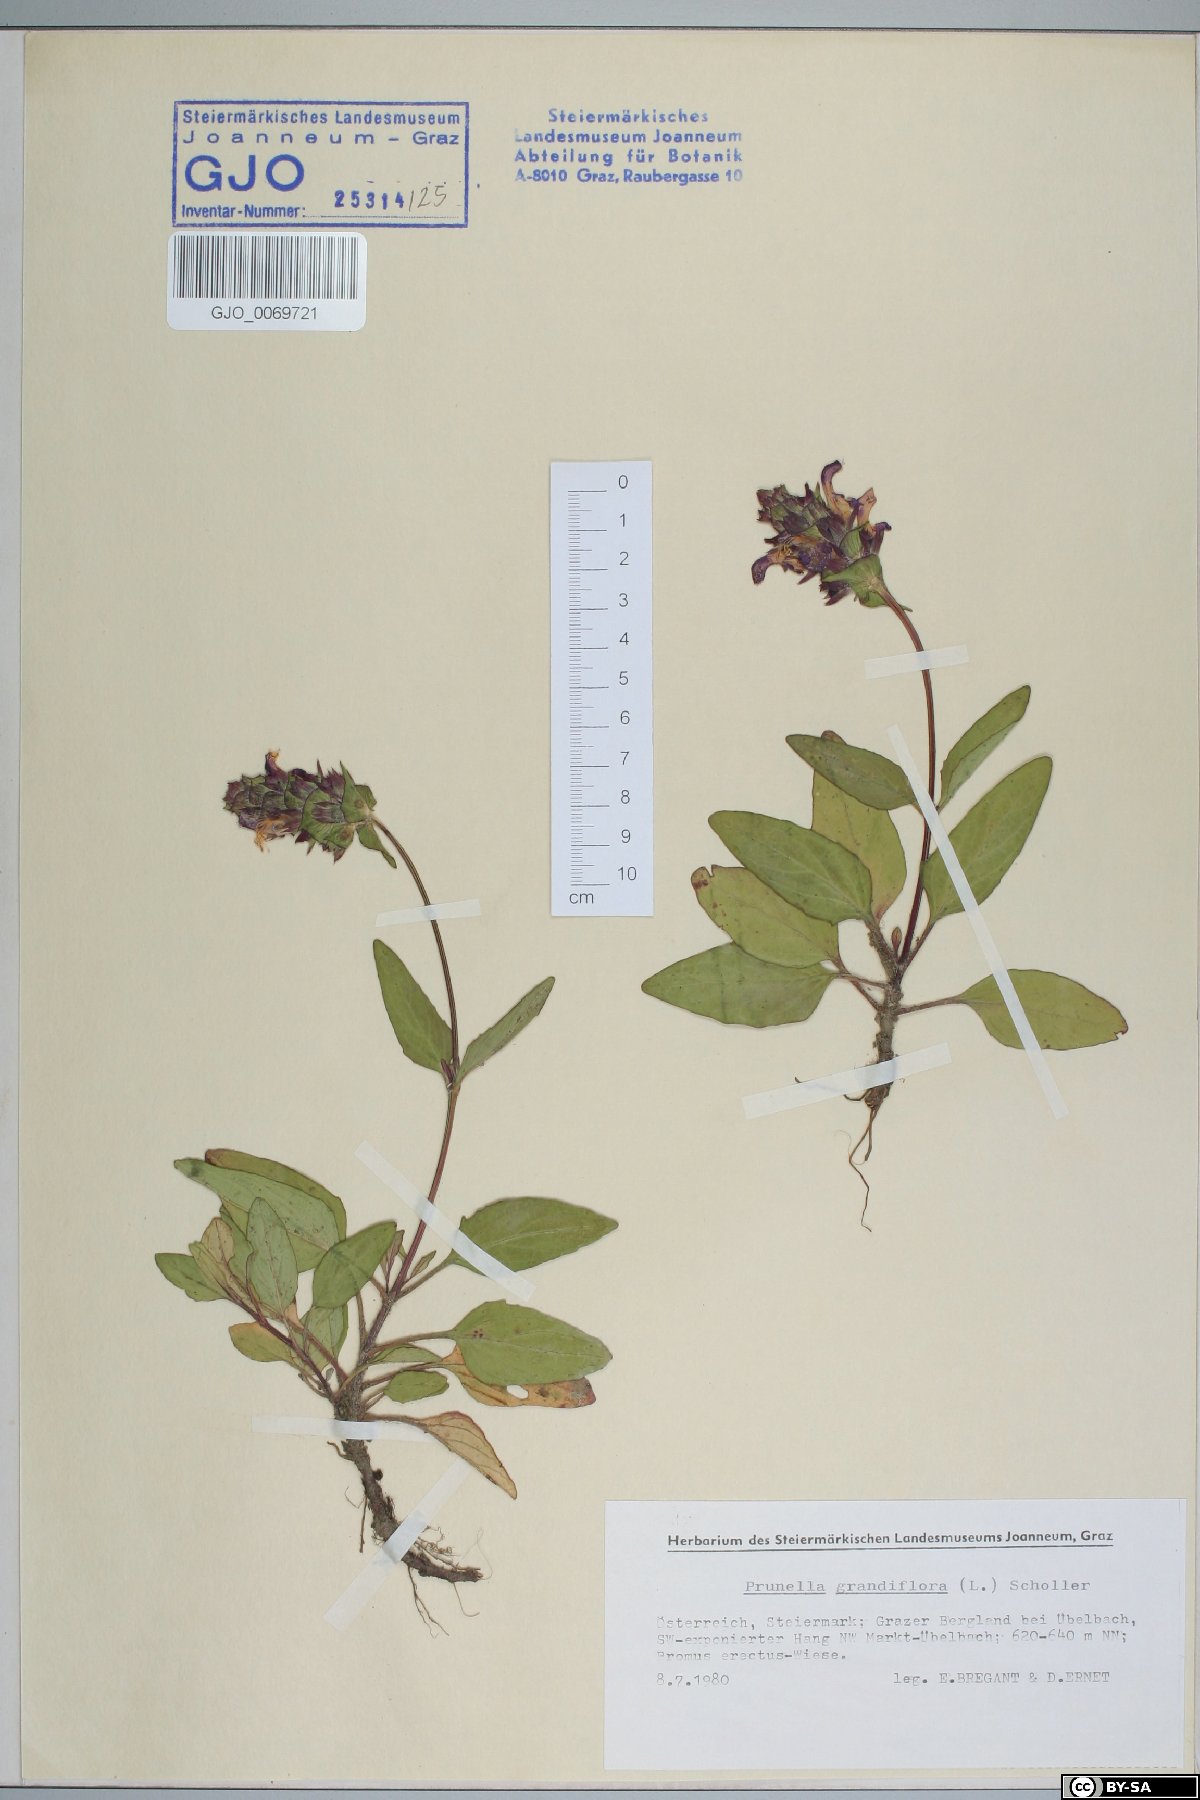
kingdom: Plantae
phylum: Tracheophyta
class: Magnoliopsida
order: Lamiales
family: Lamiaceae
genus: Prunella
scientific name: Prunella grandiflora
